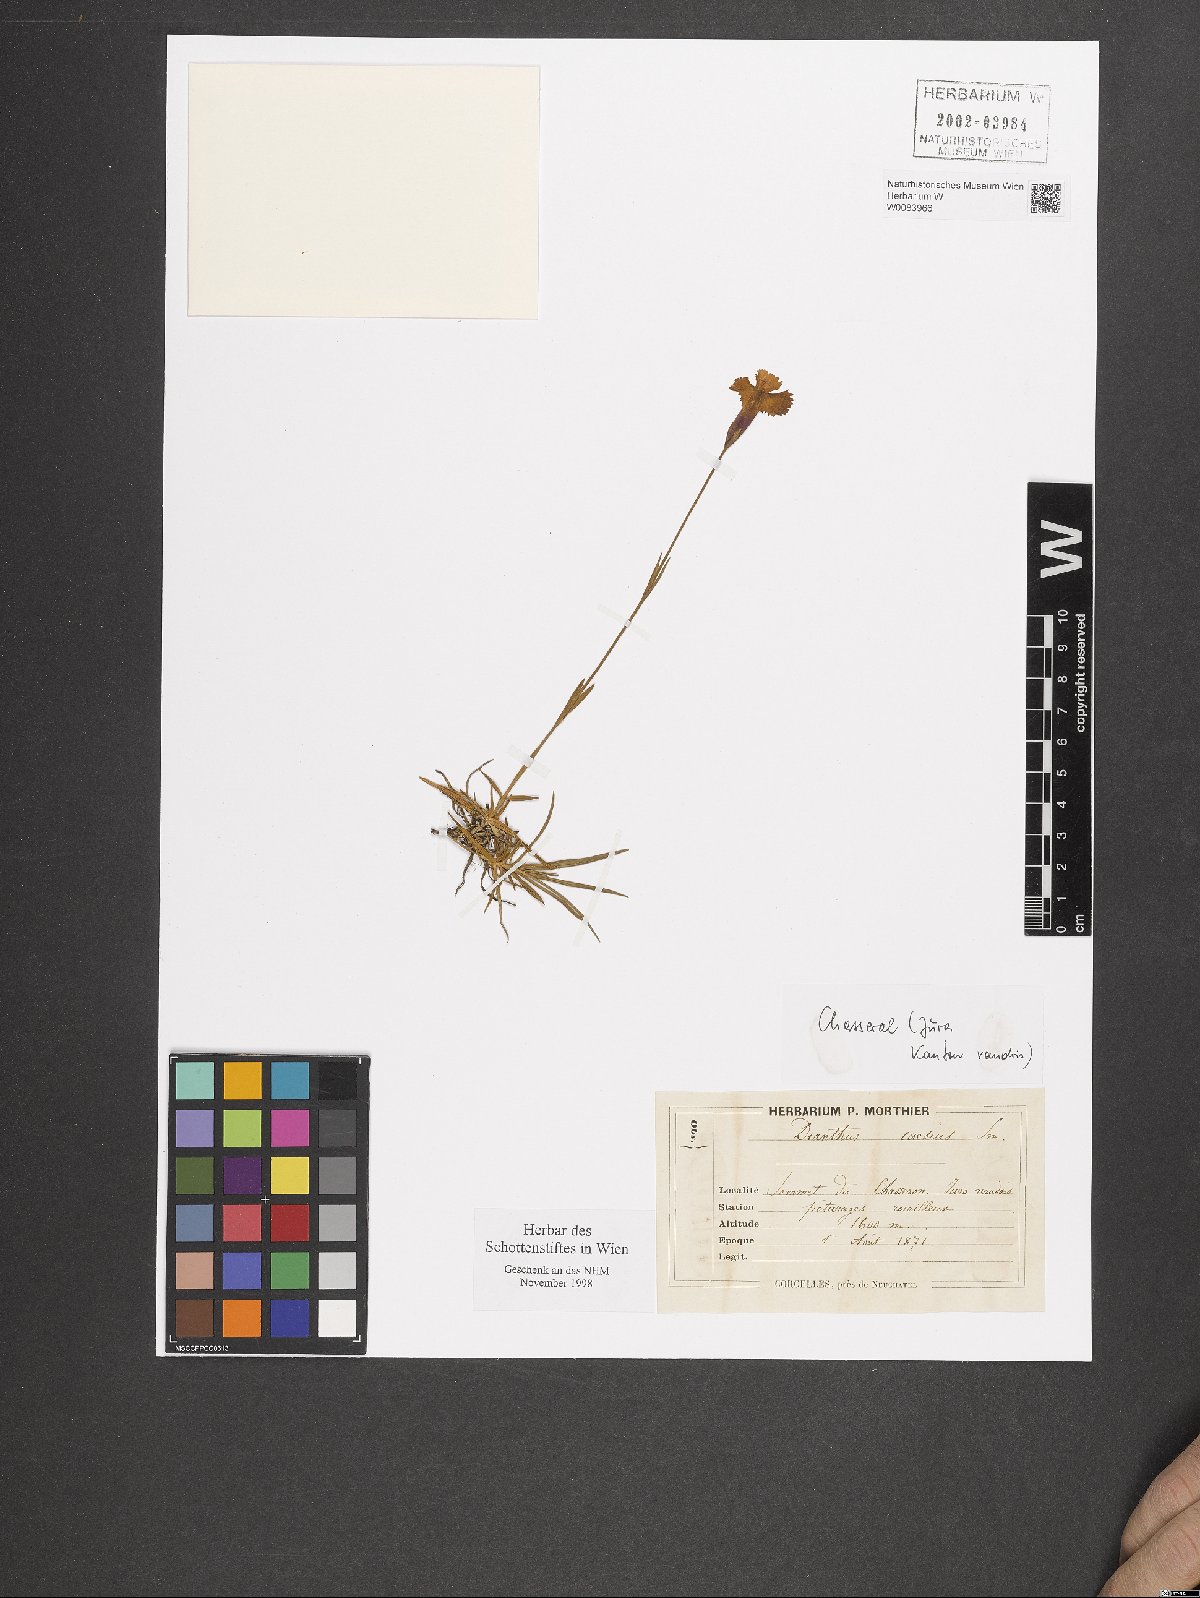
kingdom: Plantae
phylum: Tracheophyta
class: Magnoliopsida
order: Caryophyllales
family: Caryophyllaceae
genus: Dianthus
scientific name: Dianthus gratianopolitanus
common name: Cheddar pink
